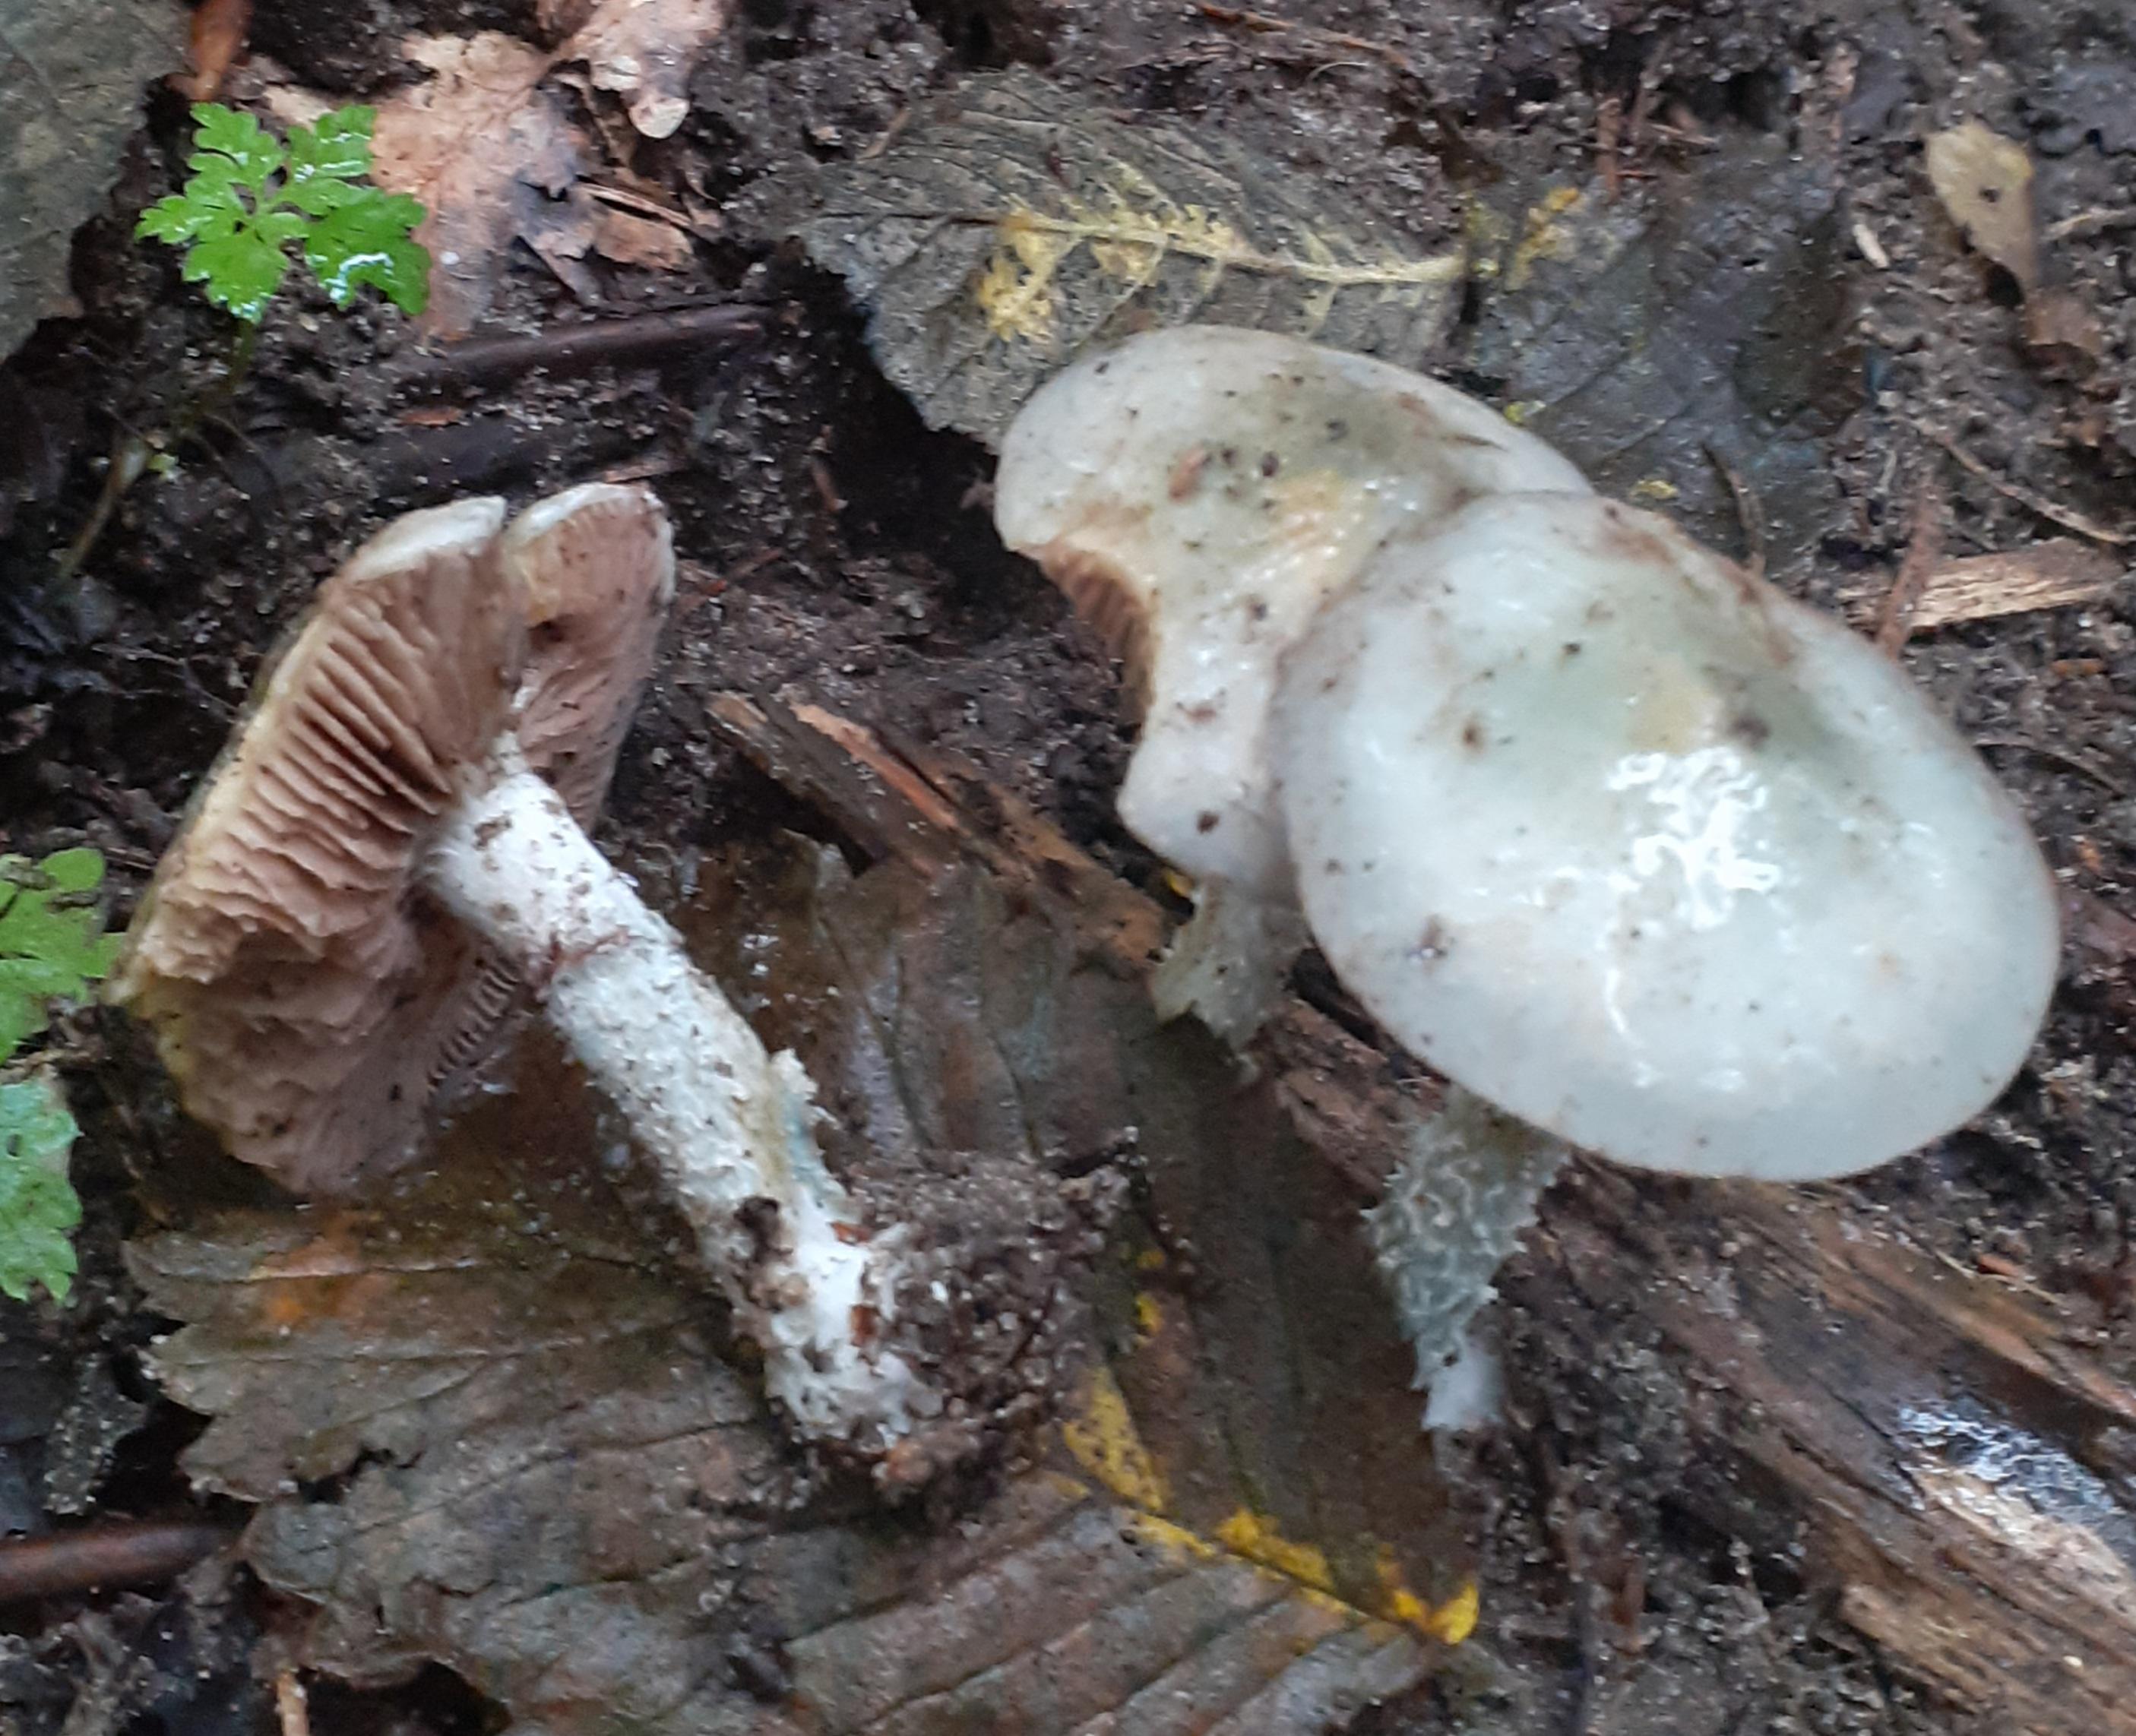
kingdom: Fungi
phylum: Basidiomycota
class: Agaricomycetes
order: Agaricales
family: Strophariaceae
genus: Stropharia
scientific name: Stropharia cyanea
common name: blågrøn bredblad
